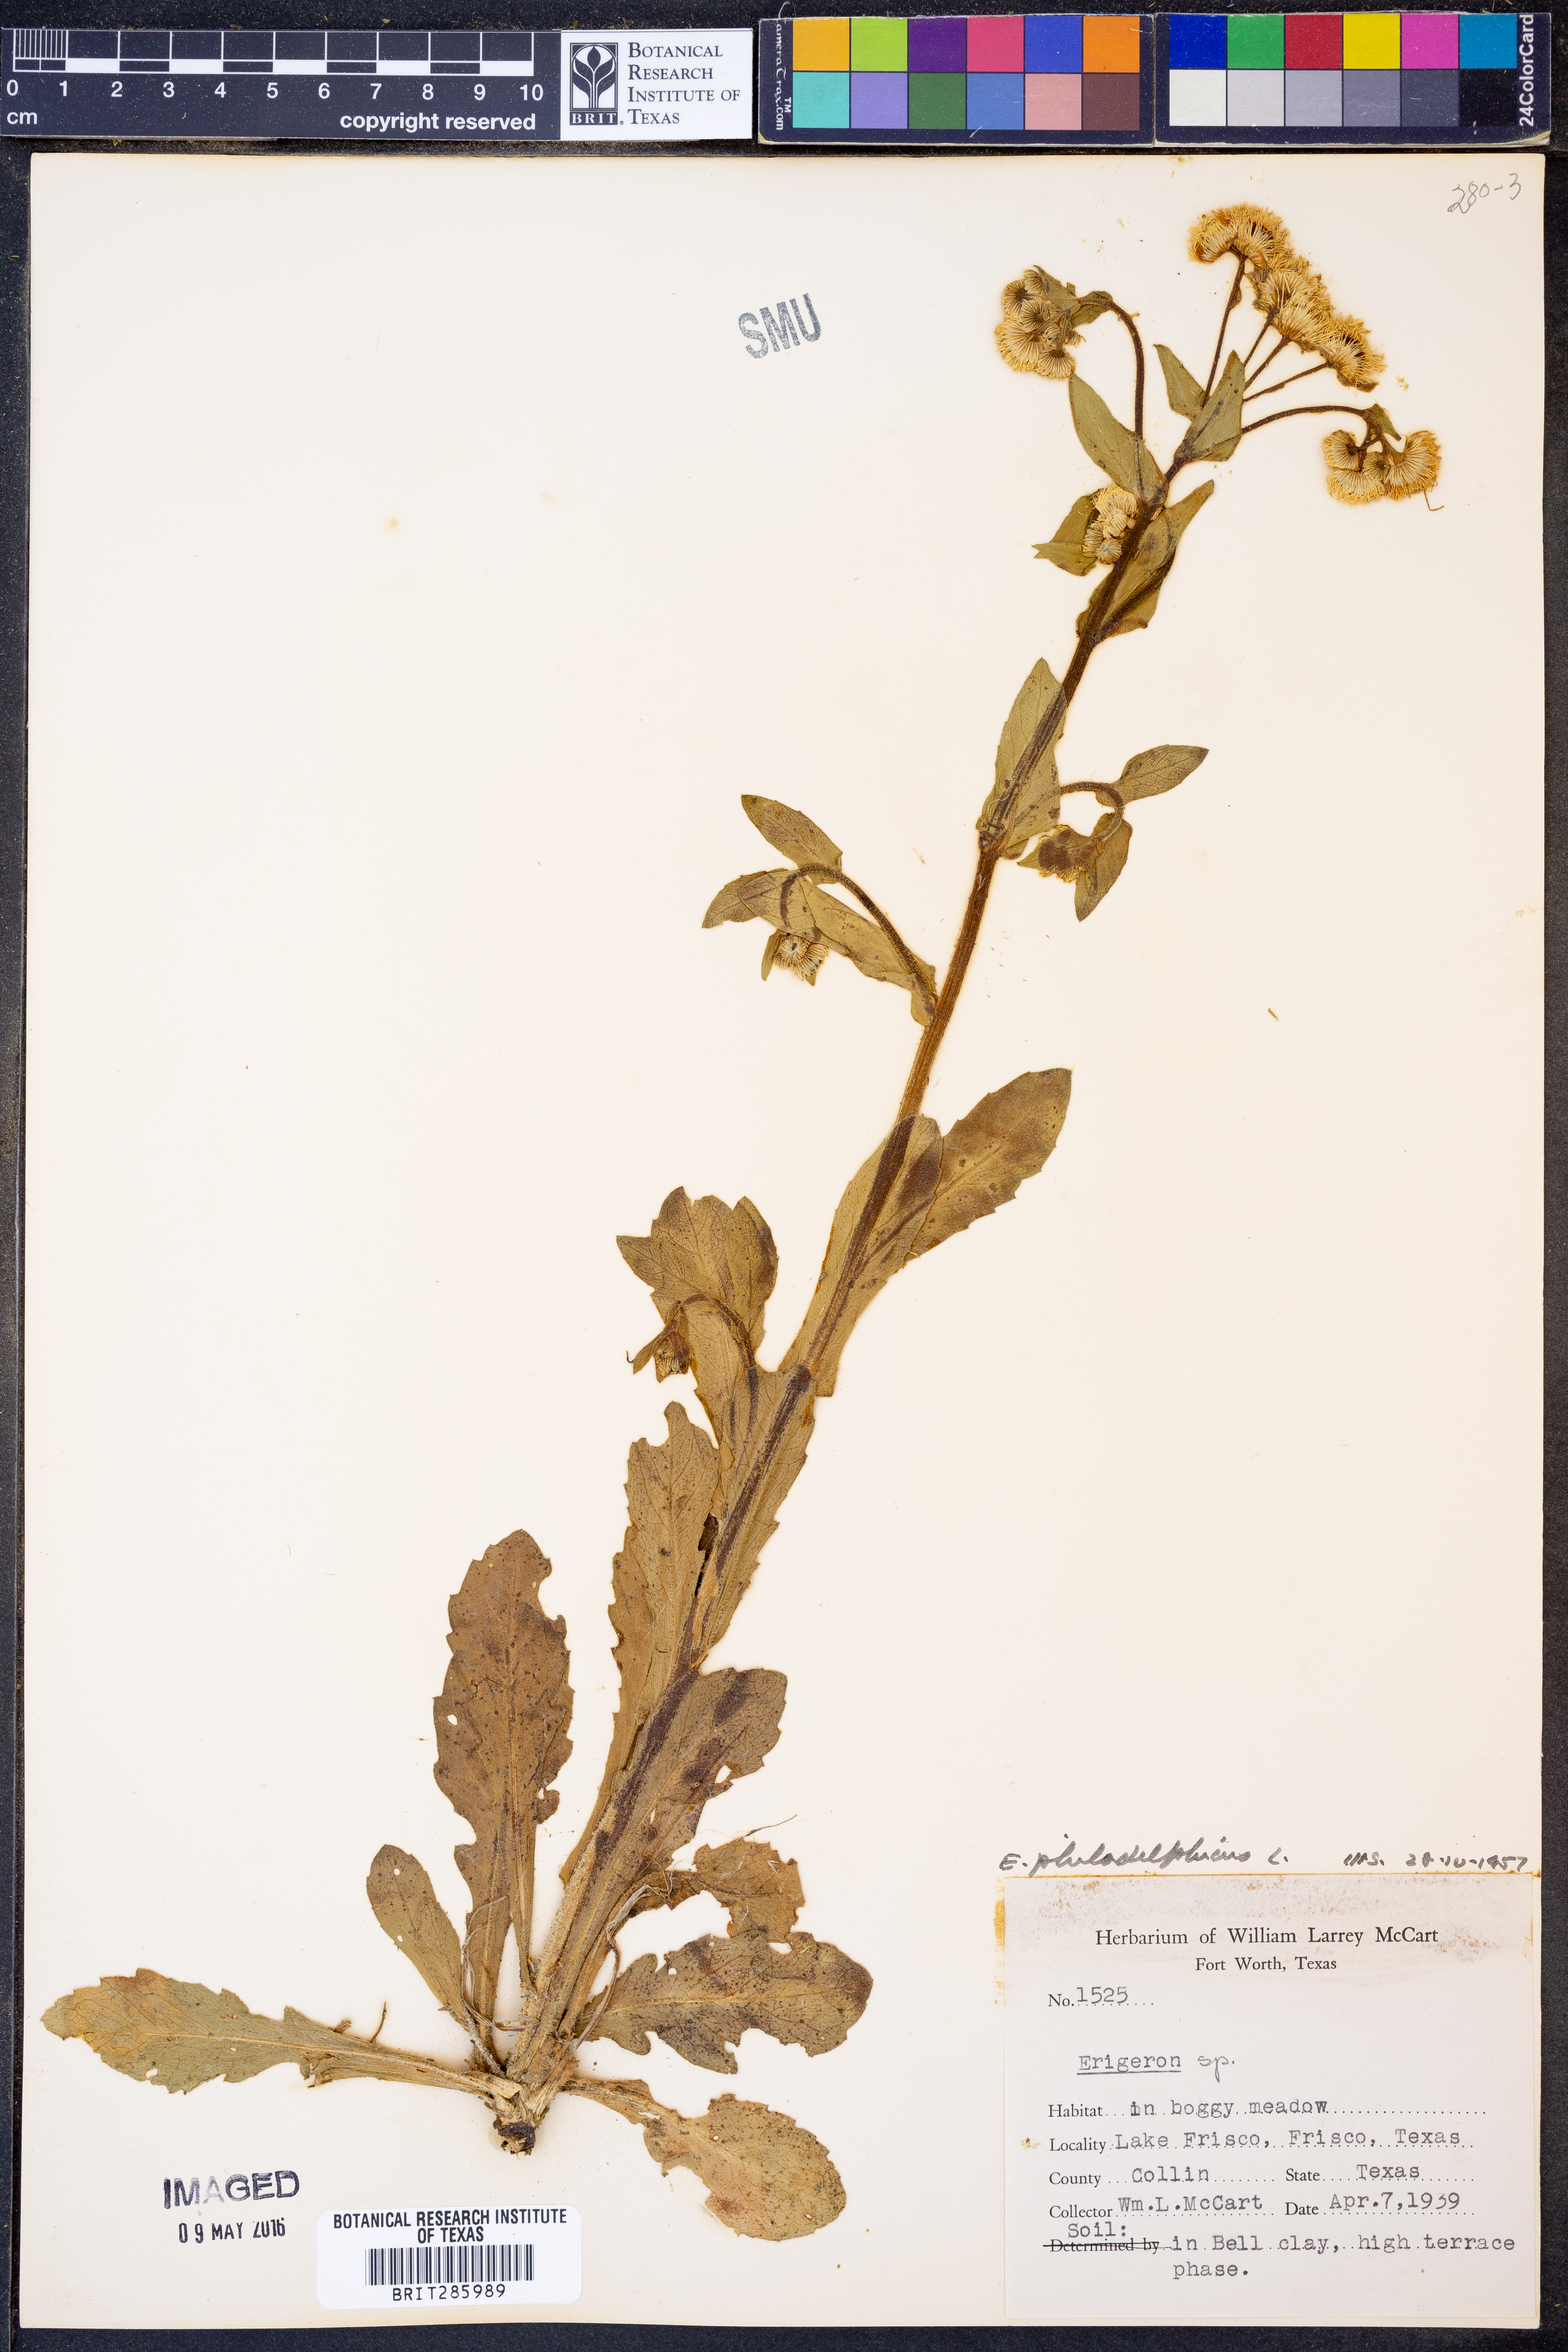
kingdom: Plantae
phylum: Tracheophyta
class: Magnoliopsida
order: Asterales
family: Asteraceae
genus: Erigeron
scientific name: Erigeron philadelphicus
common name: Robin's-plantain
